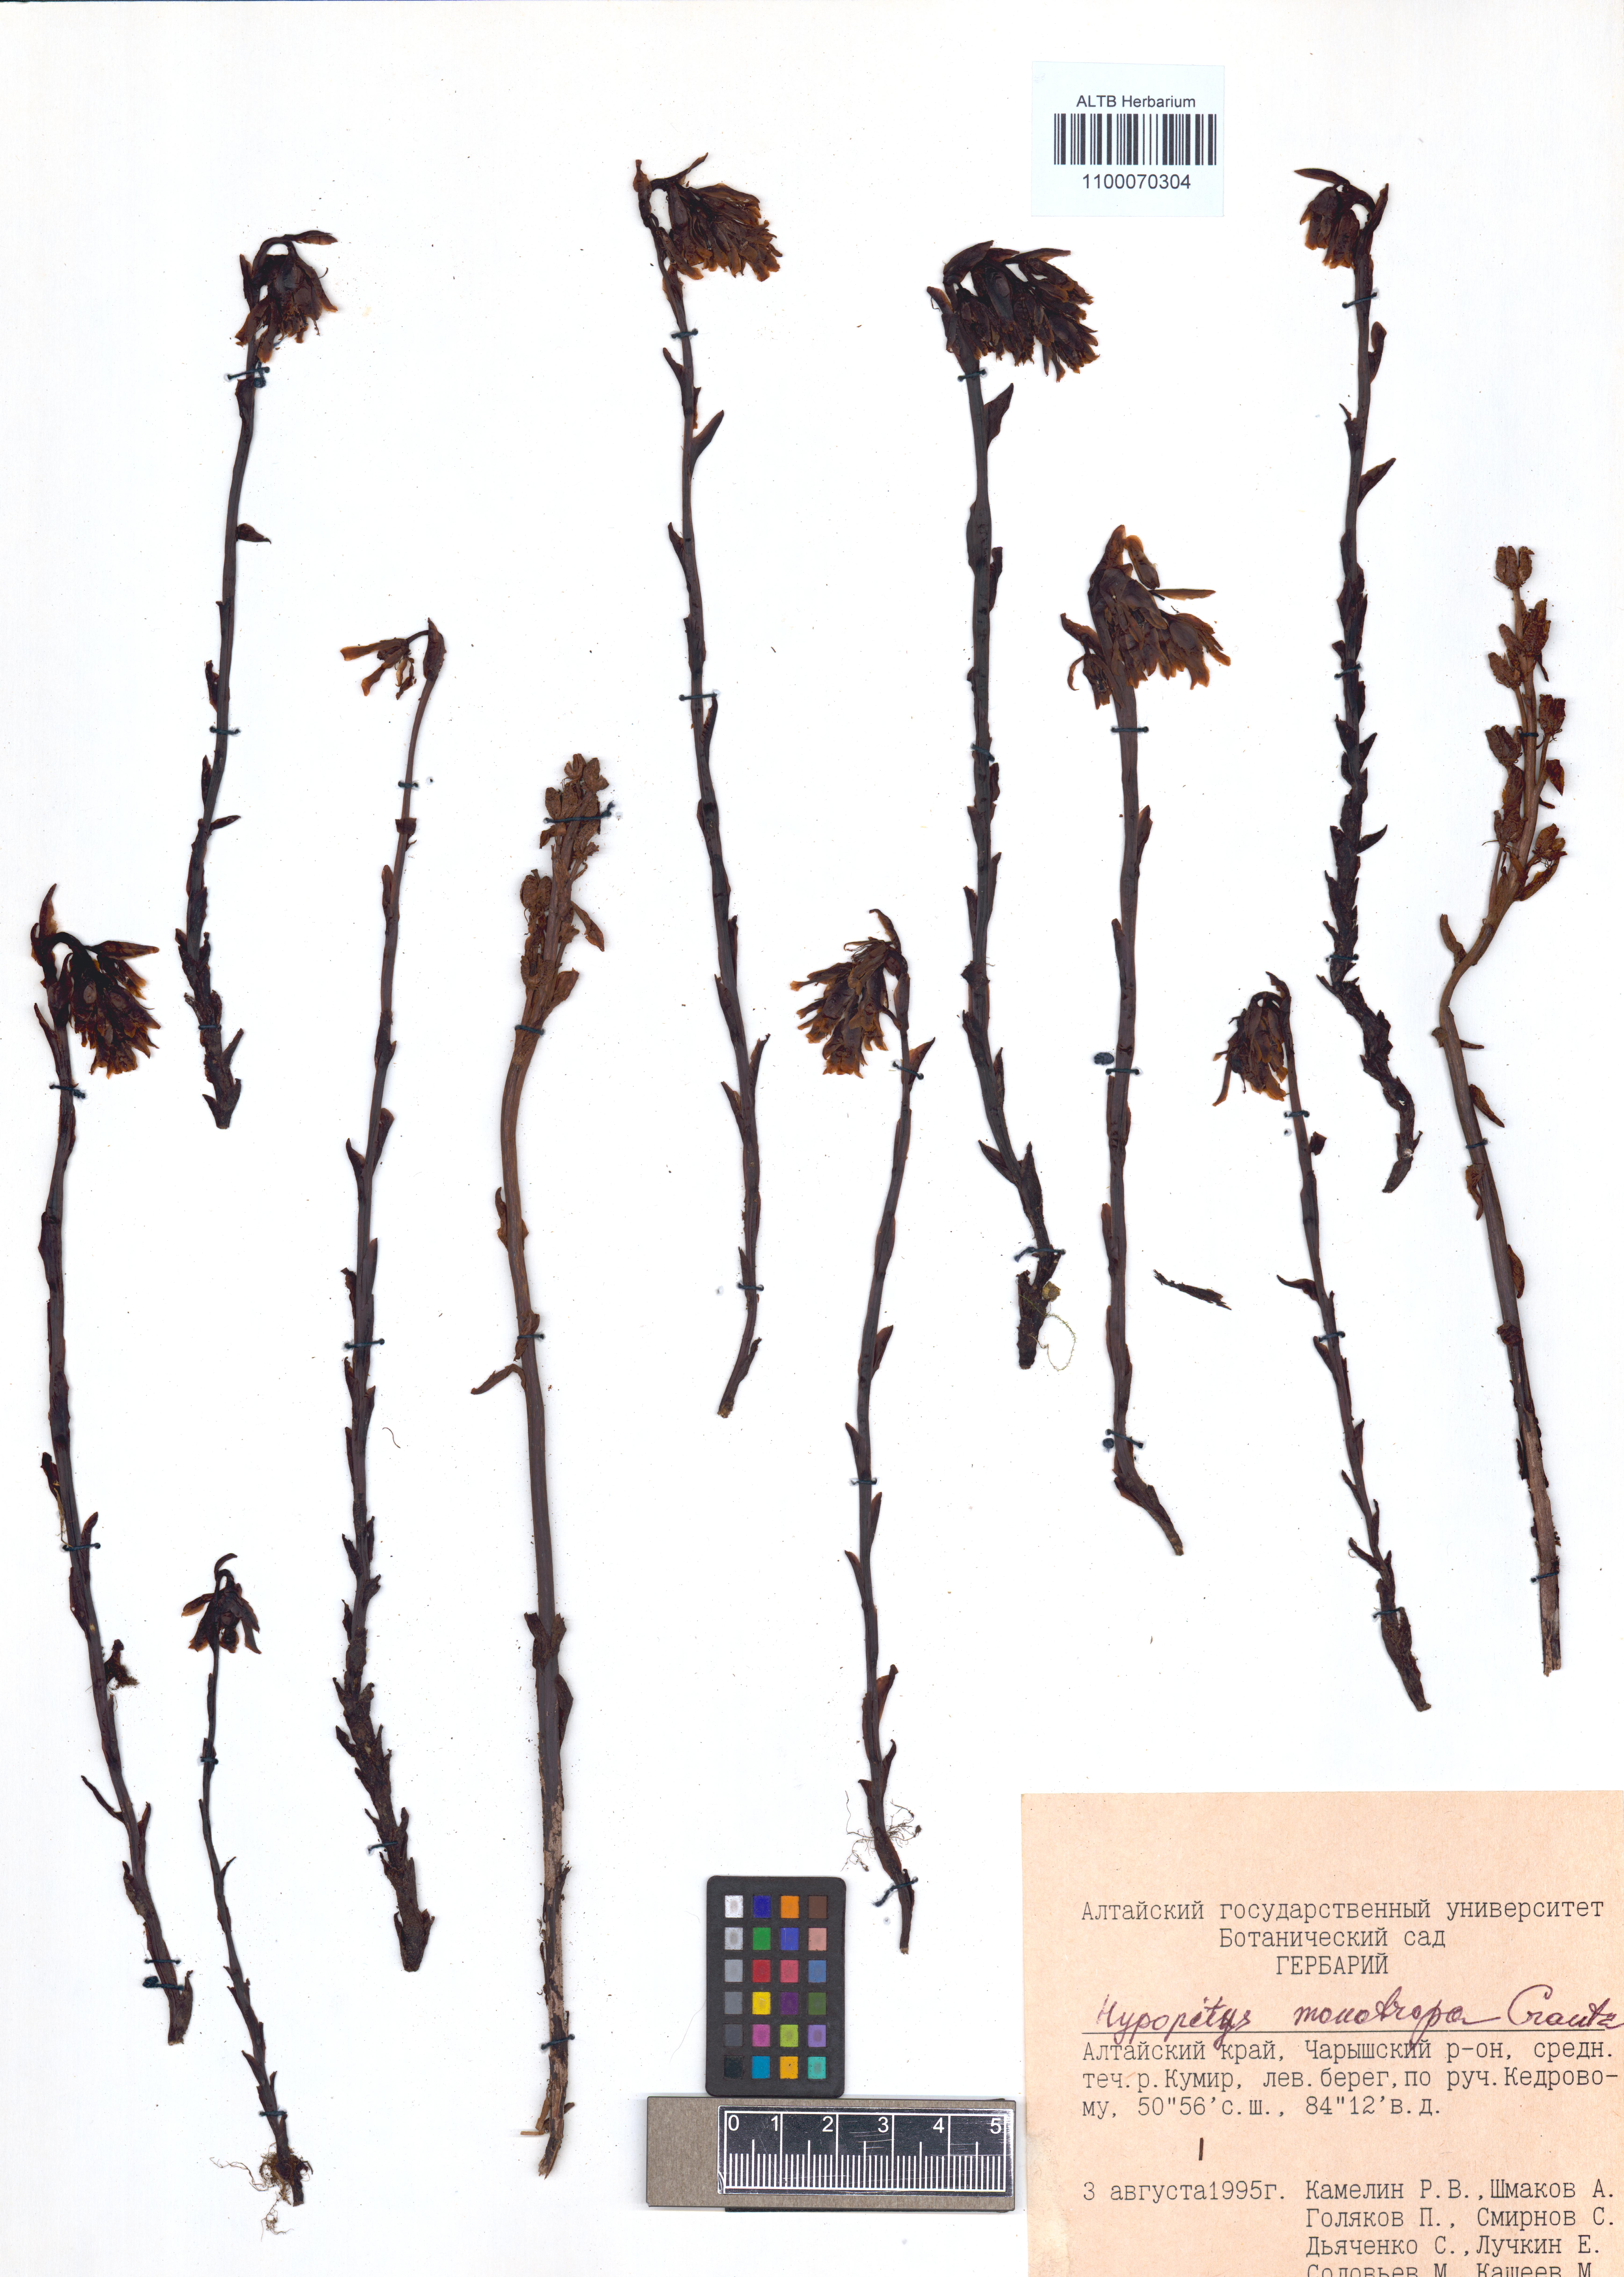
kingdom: Plantae
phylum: Tracheophyta
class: Magnoliopsida
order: Ericales
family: Ericaceae
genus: Hypopitys
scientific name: Hypopitys monotropa
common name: Yellow bird's-nest
